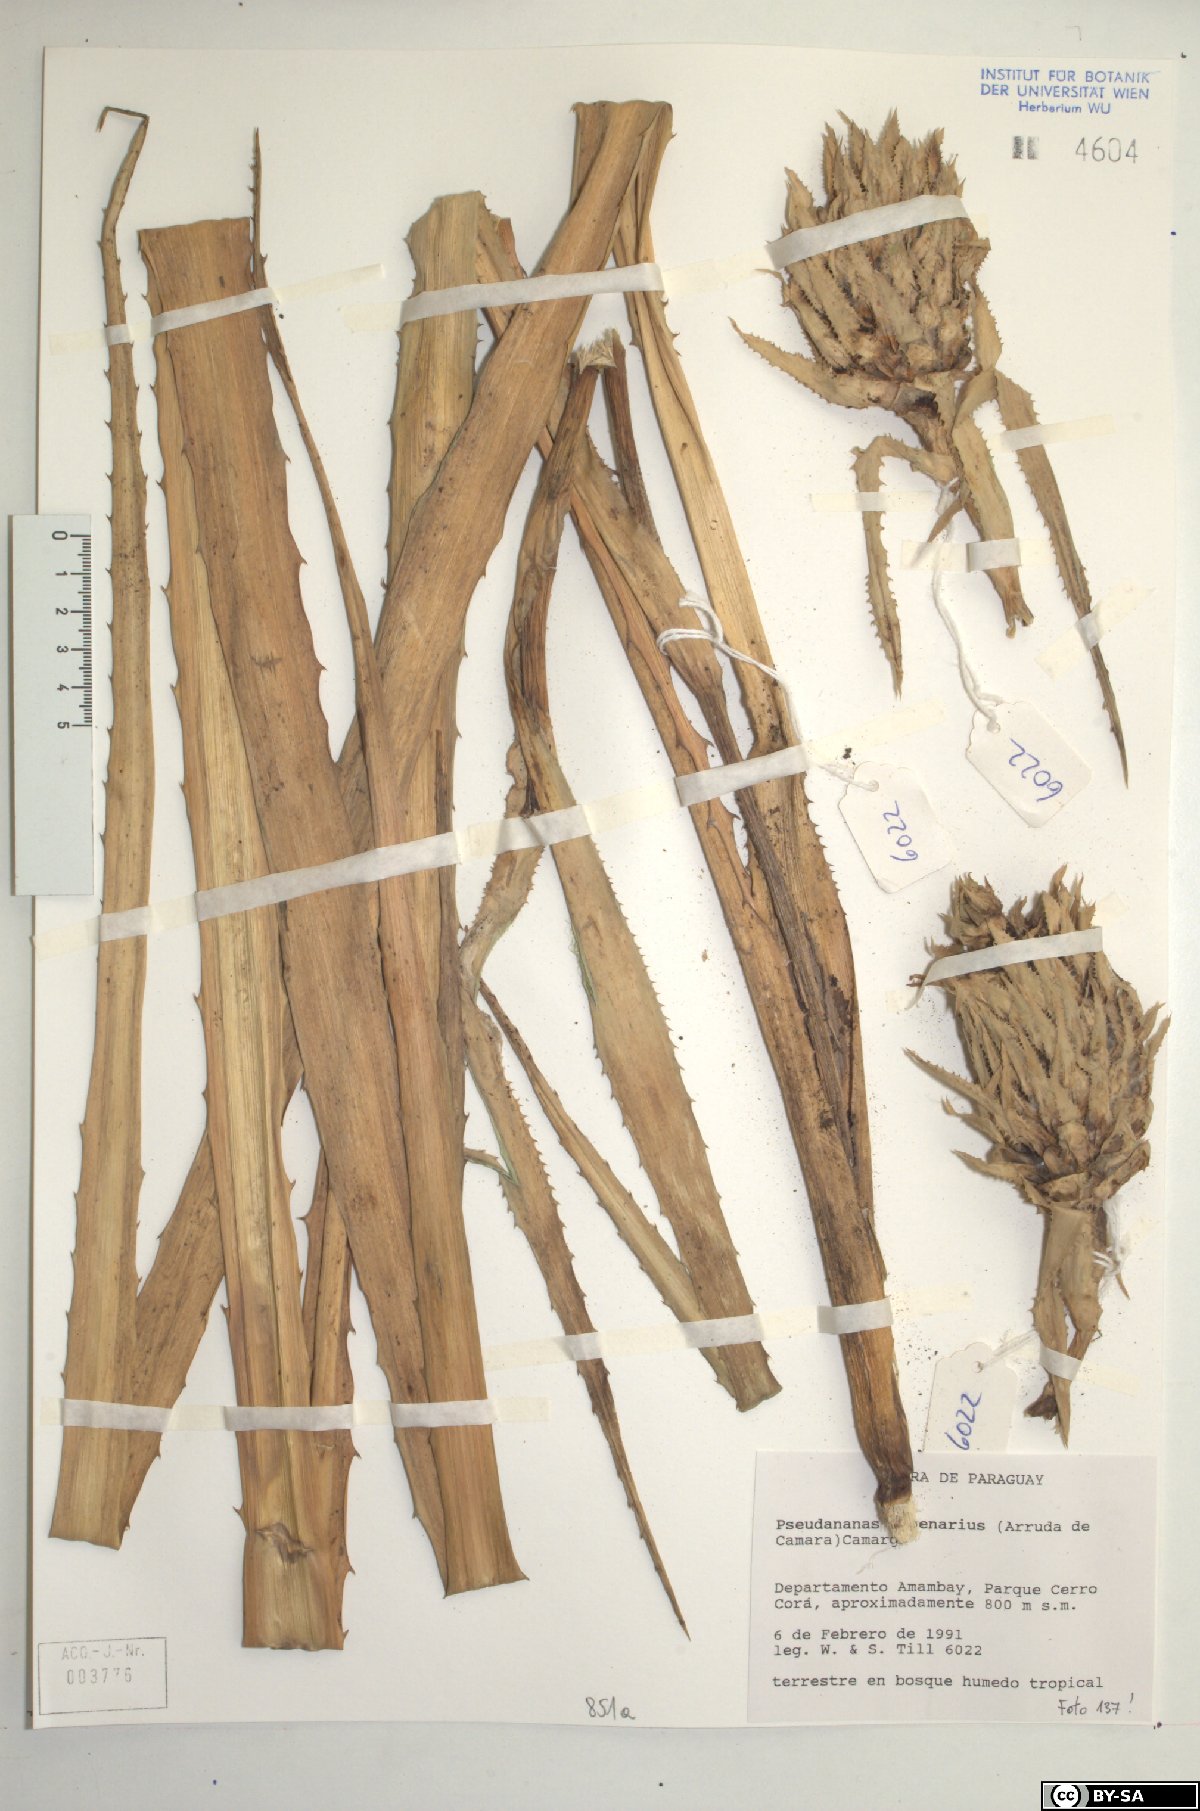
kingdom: Plantae
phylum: Tracheophyta
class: Liliopsida
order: Poales
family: Bromeliaceae
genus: Ananas
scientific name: Ananas comosus
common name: Pineapple
